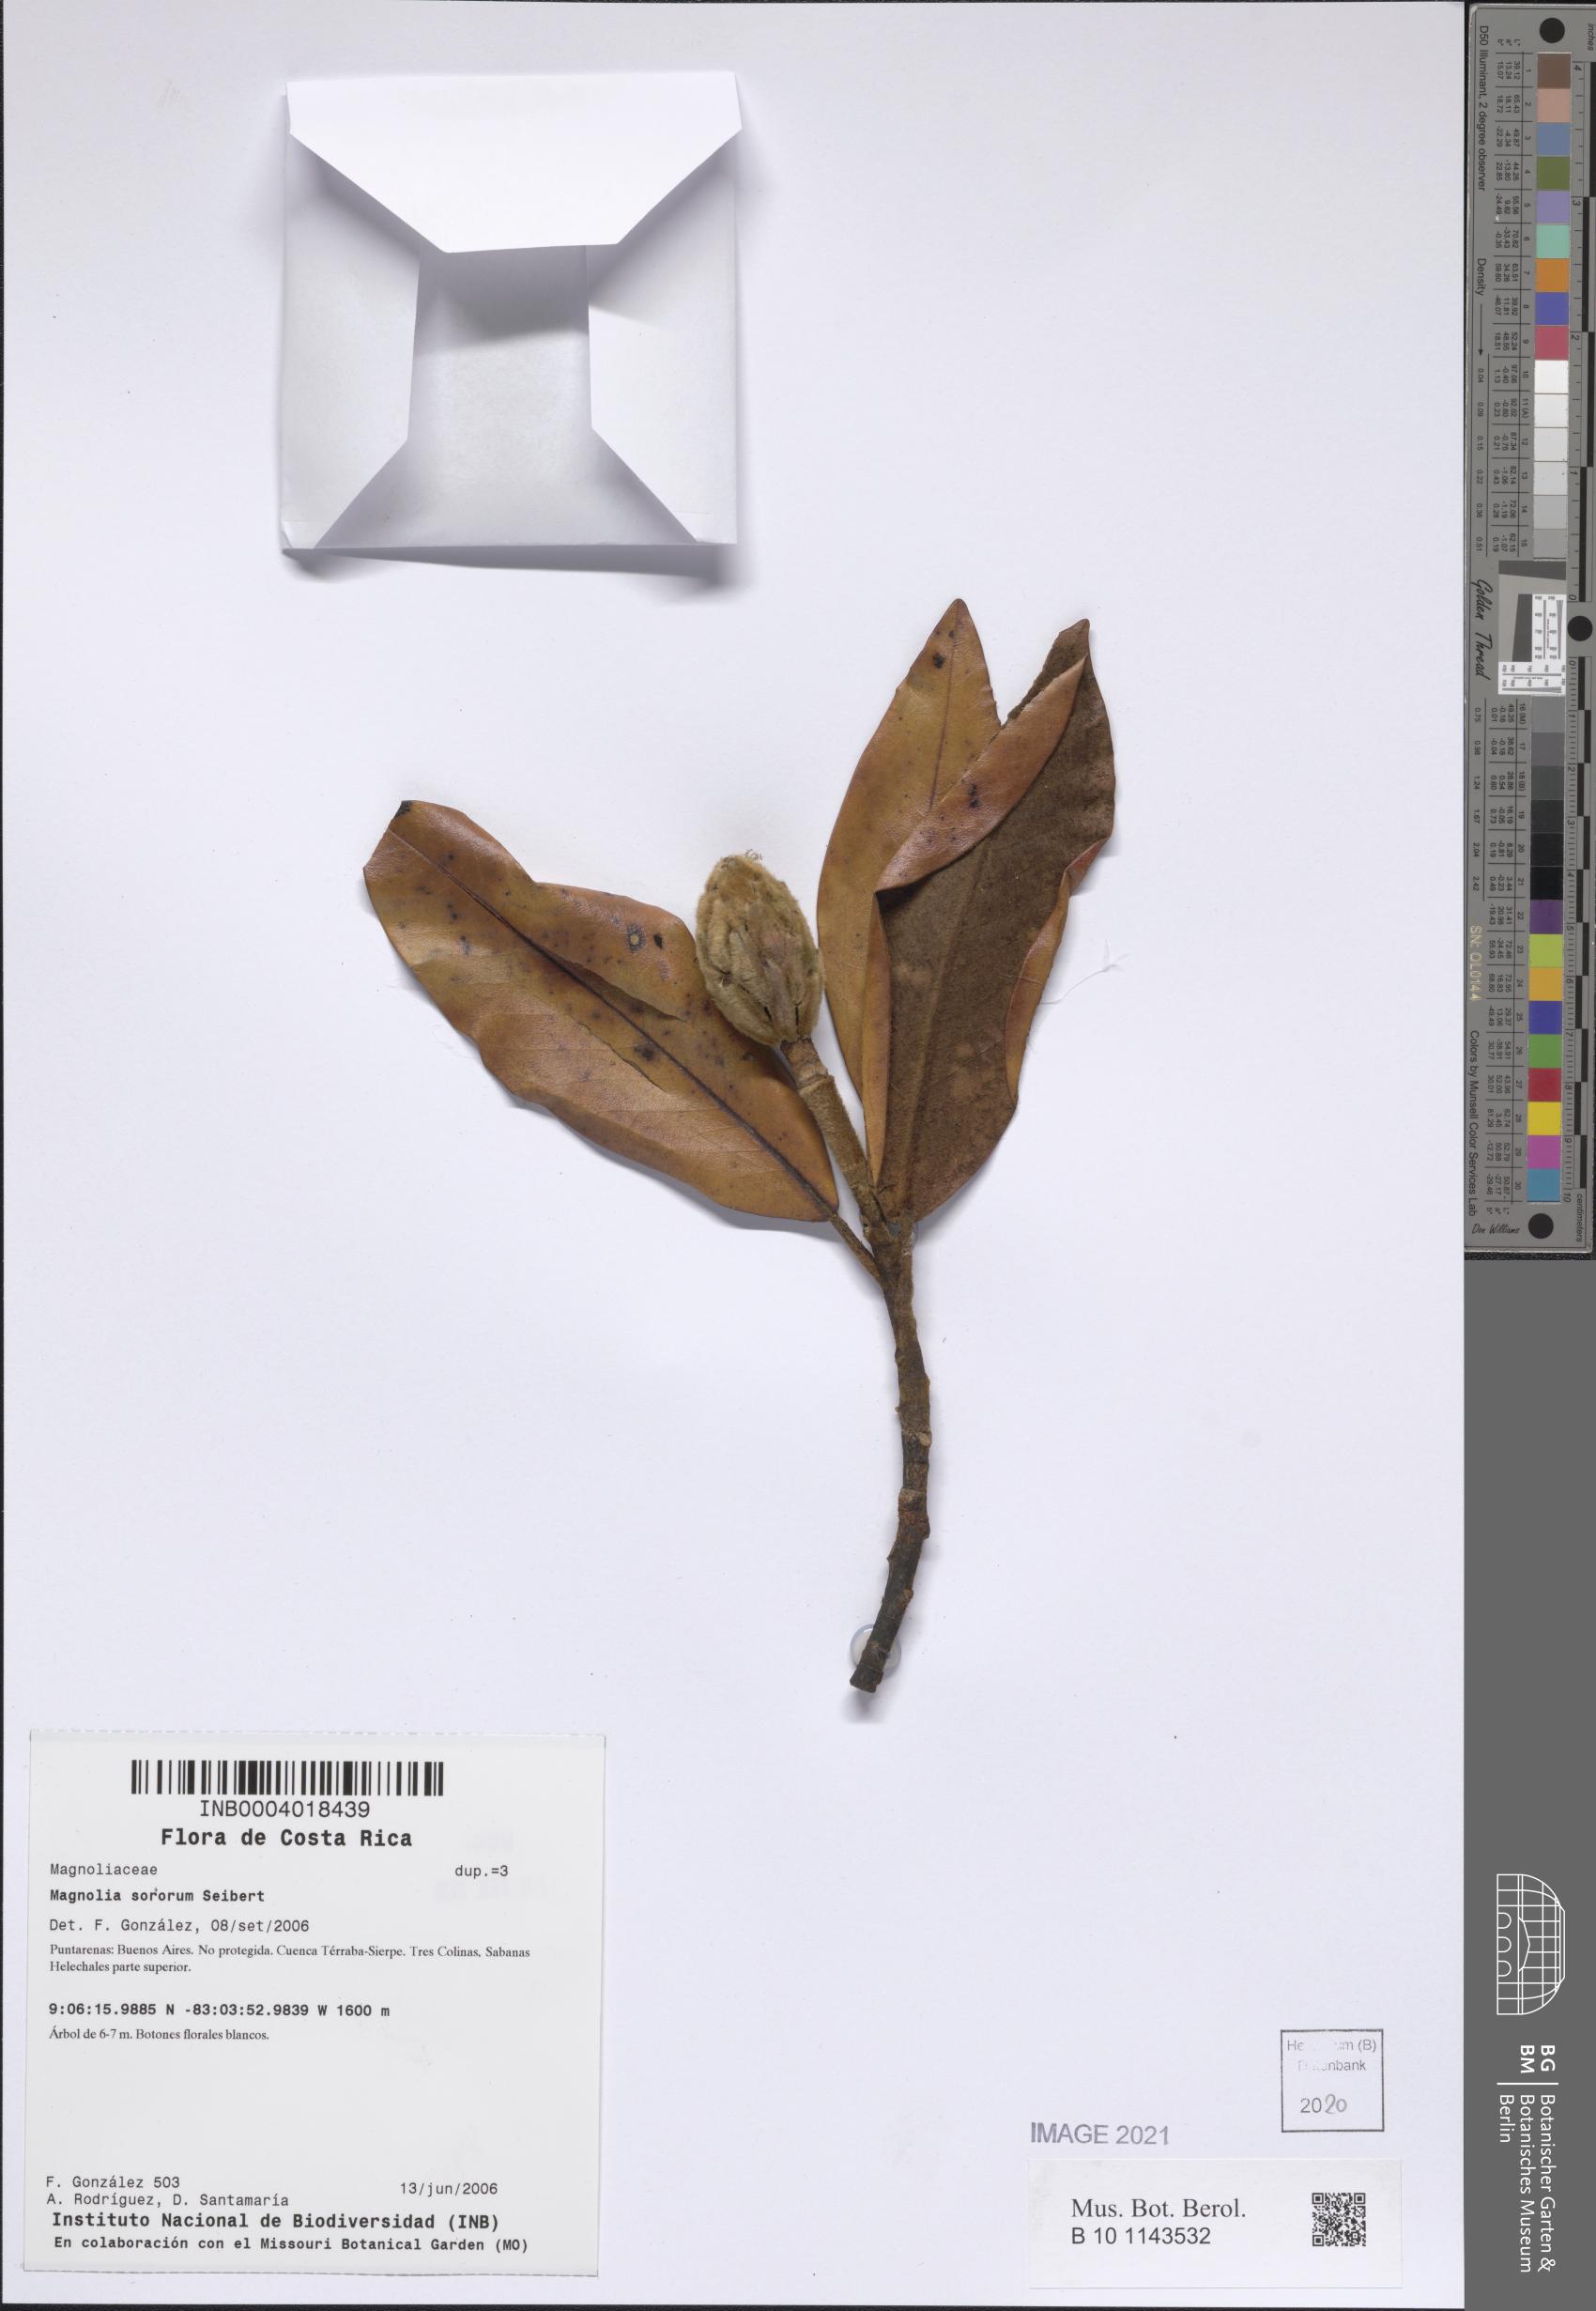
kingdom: Plantae
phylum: Tracheophyta
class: Magnoliopsida
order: Magnoliales
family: Magnoliaceae
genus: Magnolia
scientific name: Magnolia sororum
